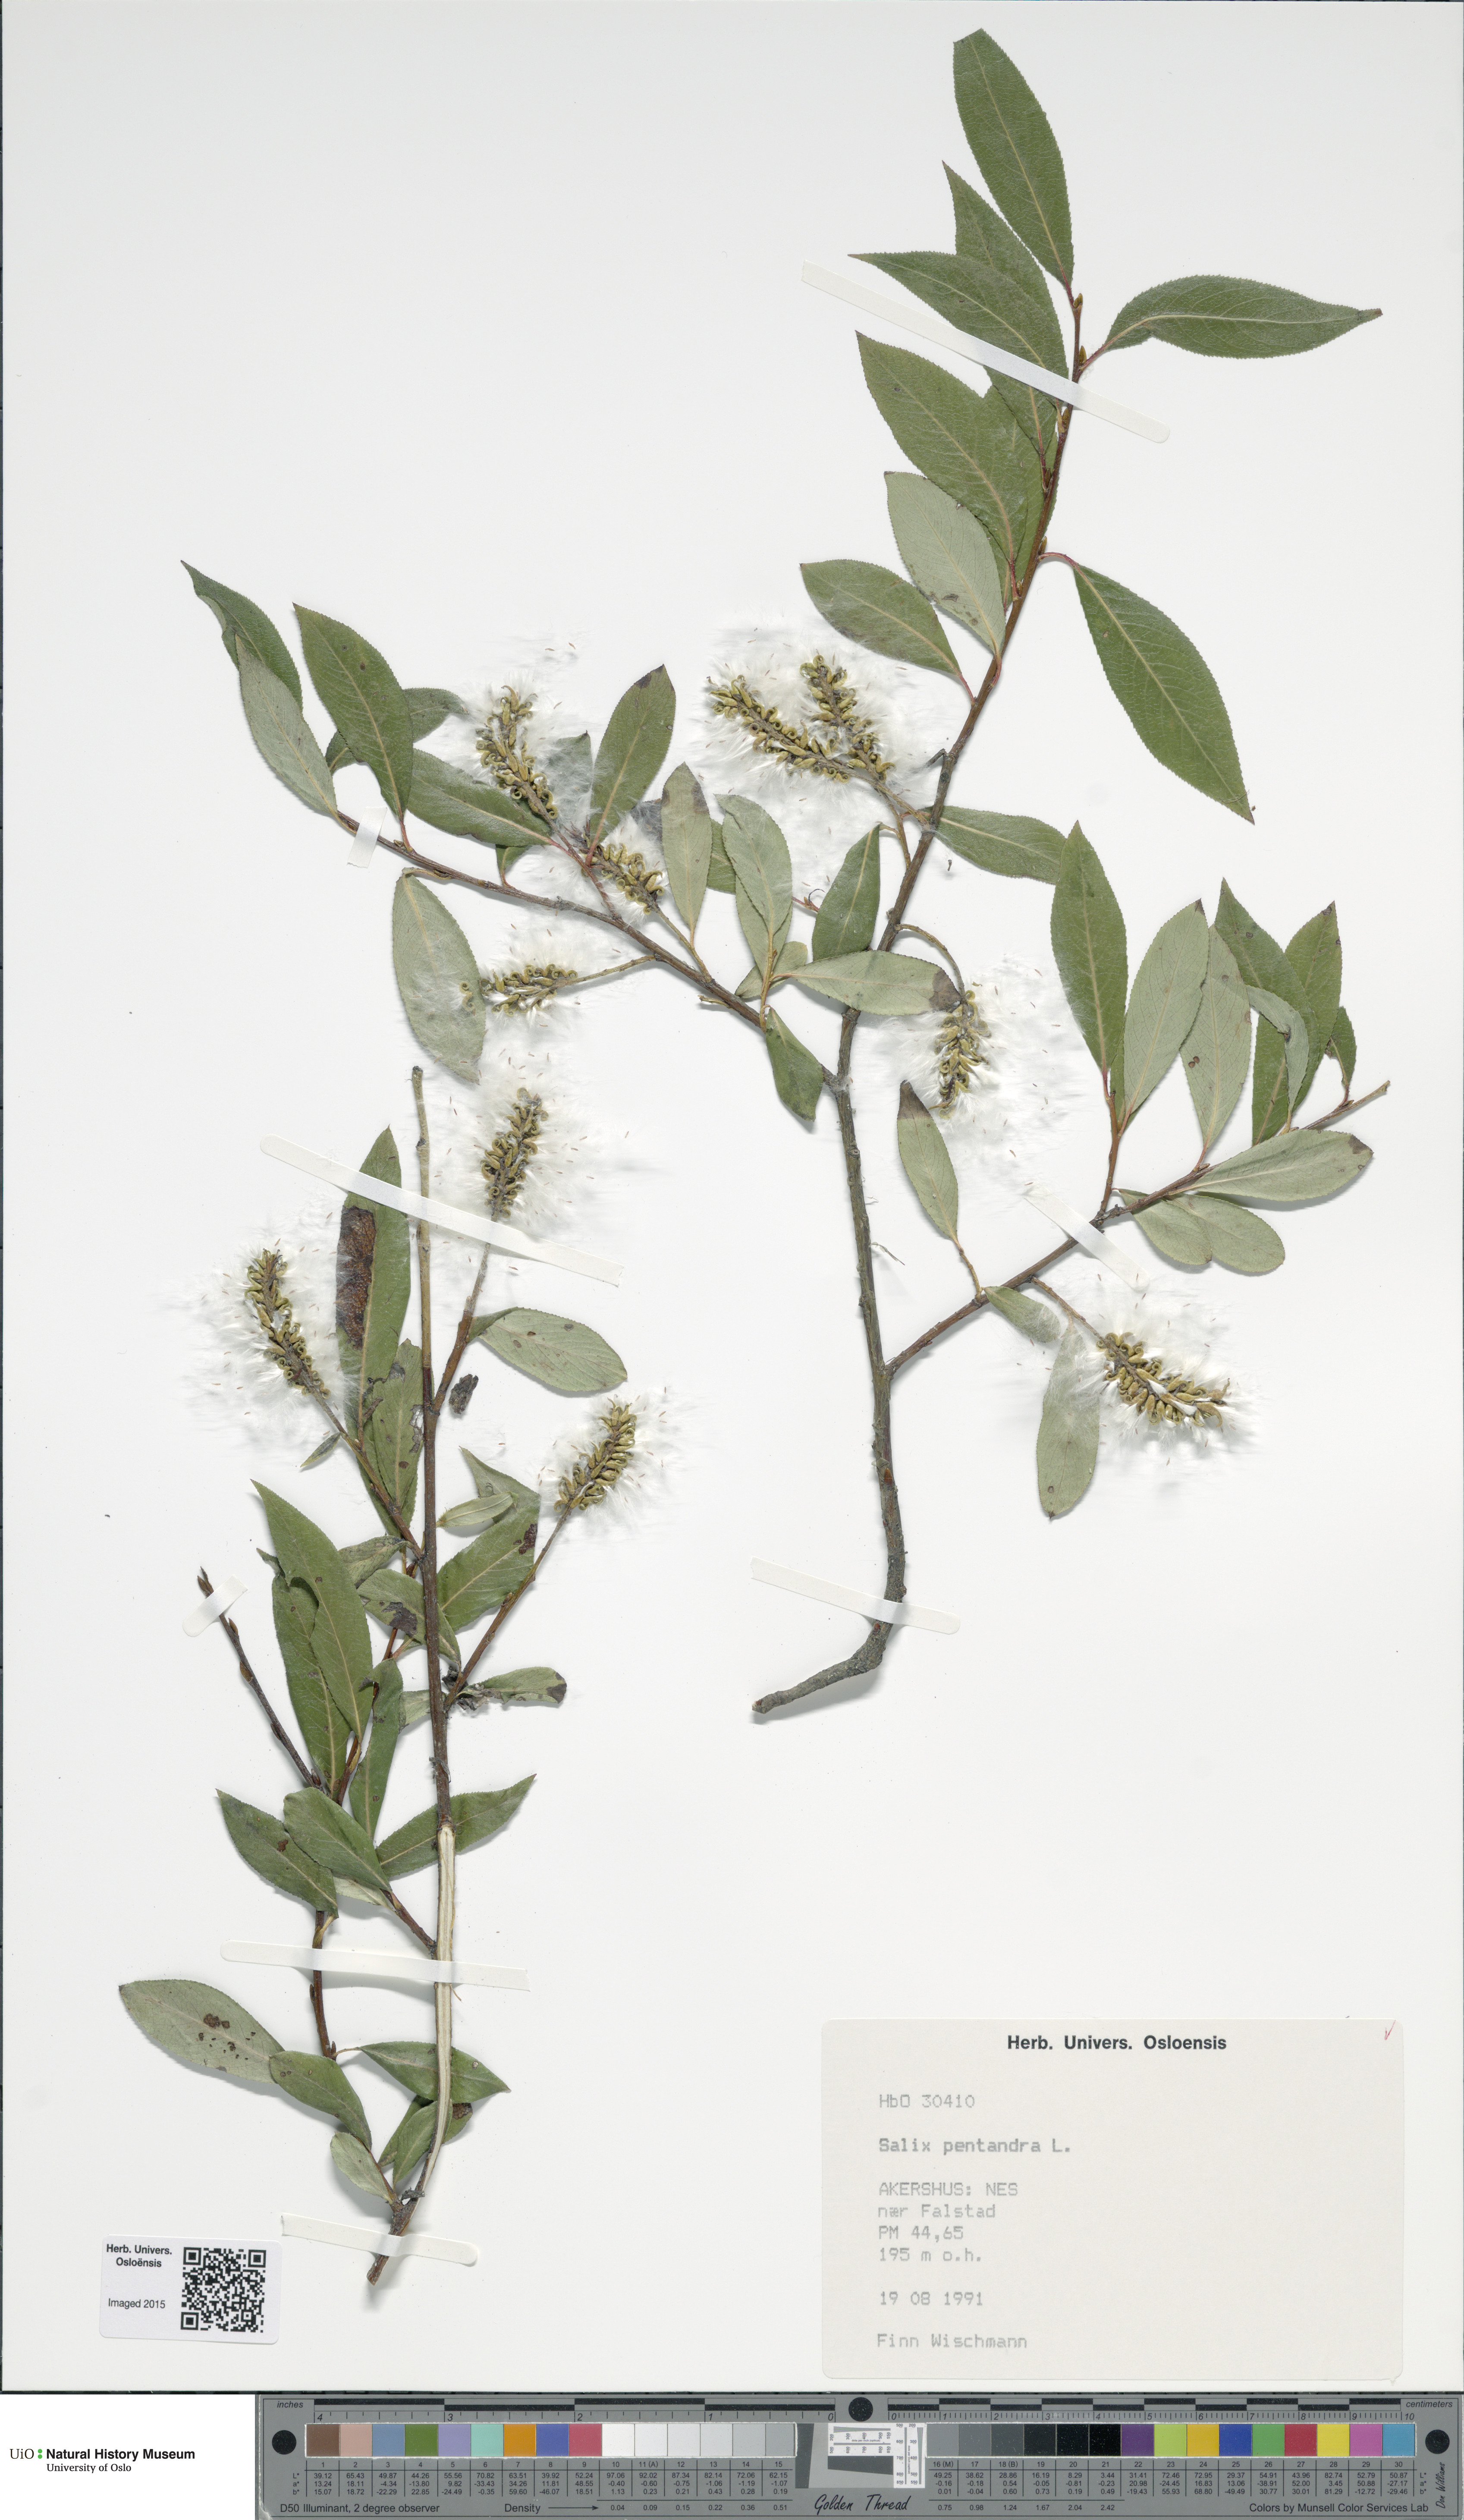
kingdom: Plantae
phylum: Tracheophyta
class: Magnoliopsida
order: Malpighiales
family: Salicaceae
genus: Salix
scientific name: Salix pentandra
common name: Bay willow
